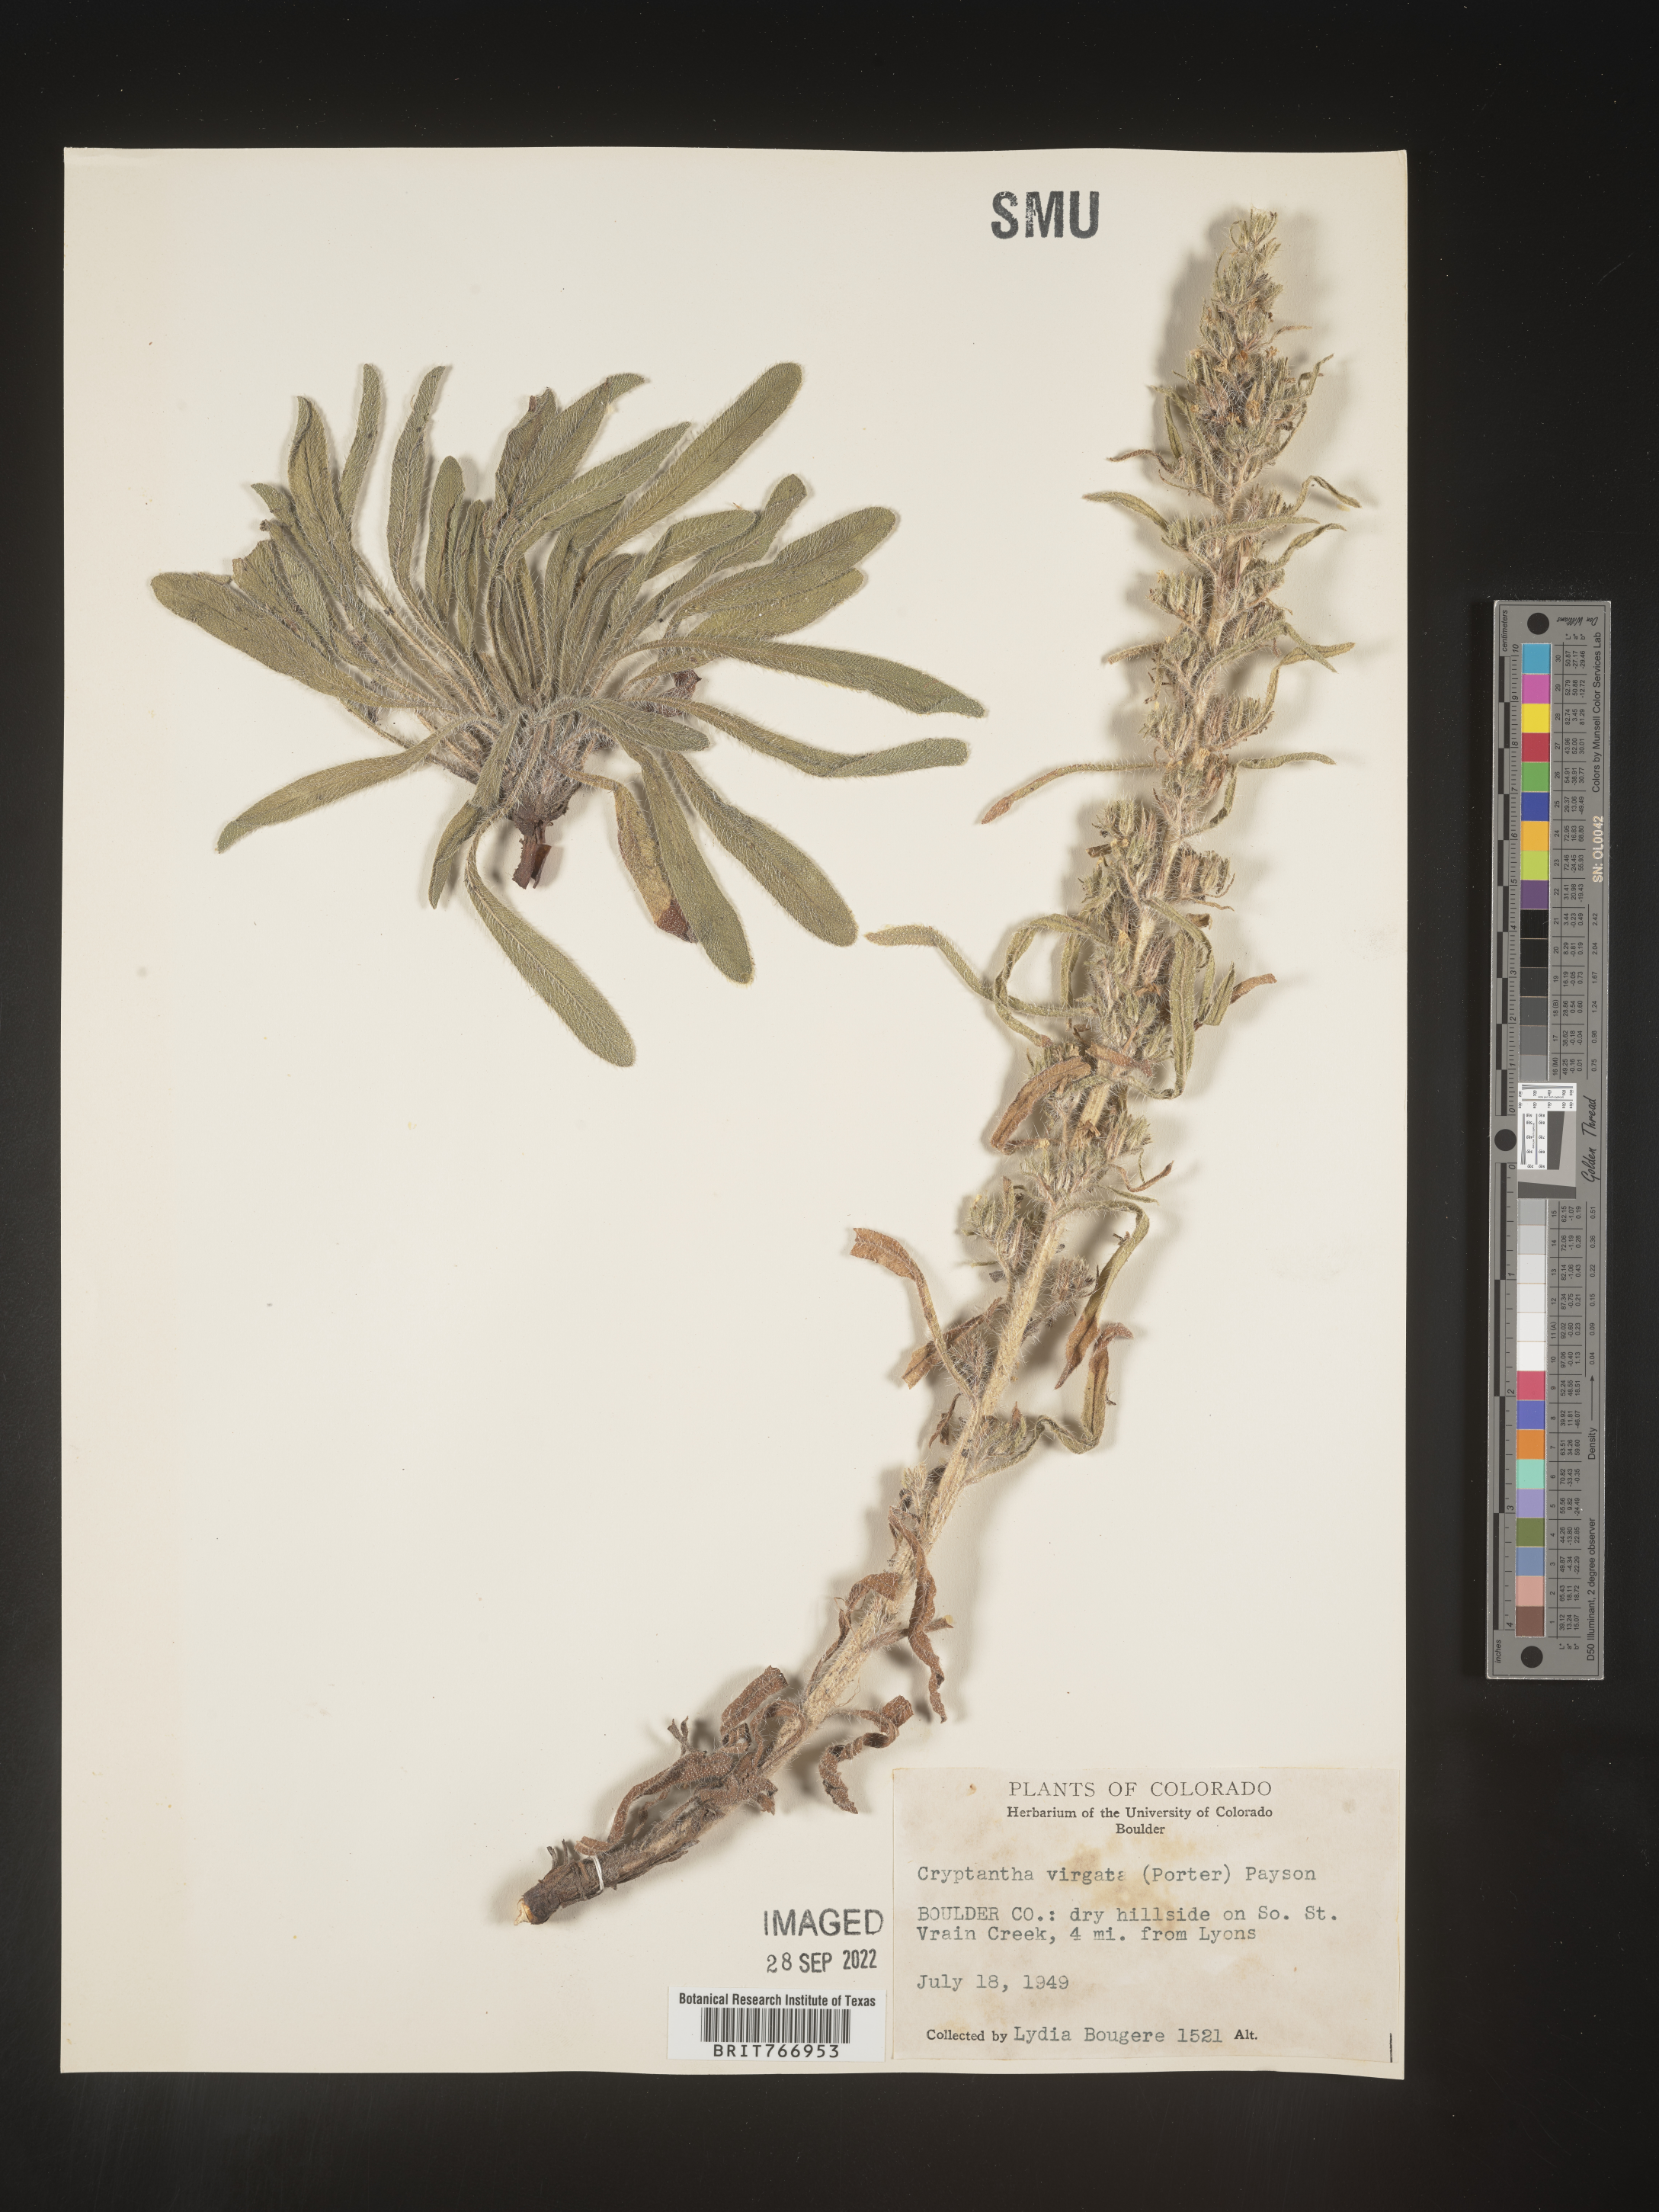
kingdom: Plantae
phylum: Tracheophyta
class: Magnoliopsida
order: Boraginales
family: Boraginaceae
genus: Cryptantha
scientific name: Cryptantha
